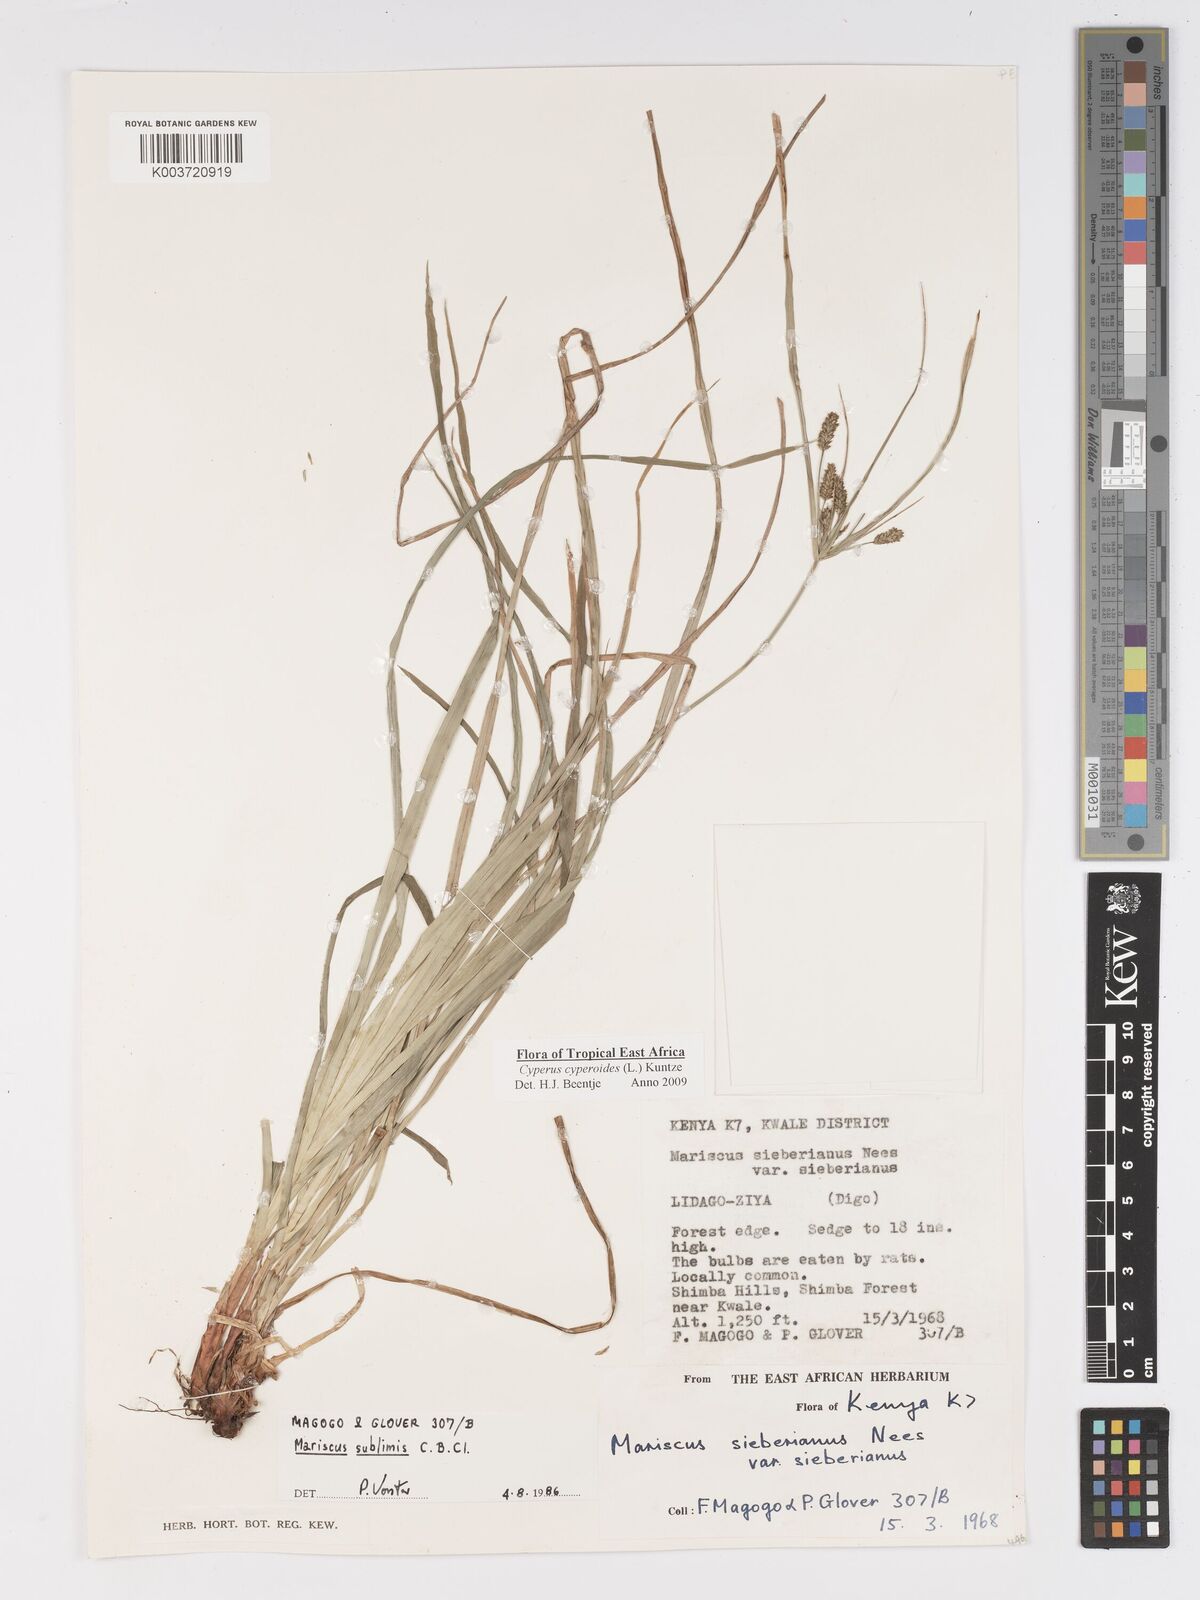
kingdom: Plantae
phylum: Tracheophyta
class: Liliopsida
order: Poales
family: Cyperaceae
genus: Cyperus
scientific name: Cyperus cyperoides
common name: Pacific island flat sedge
